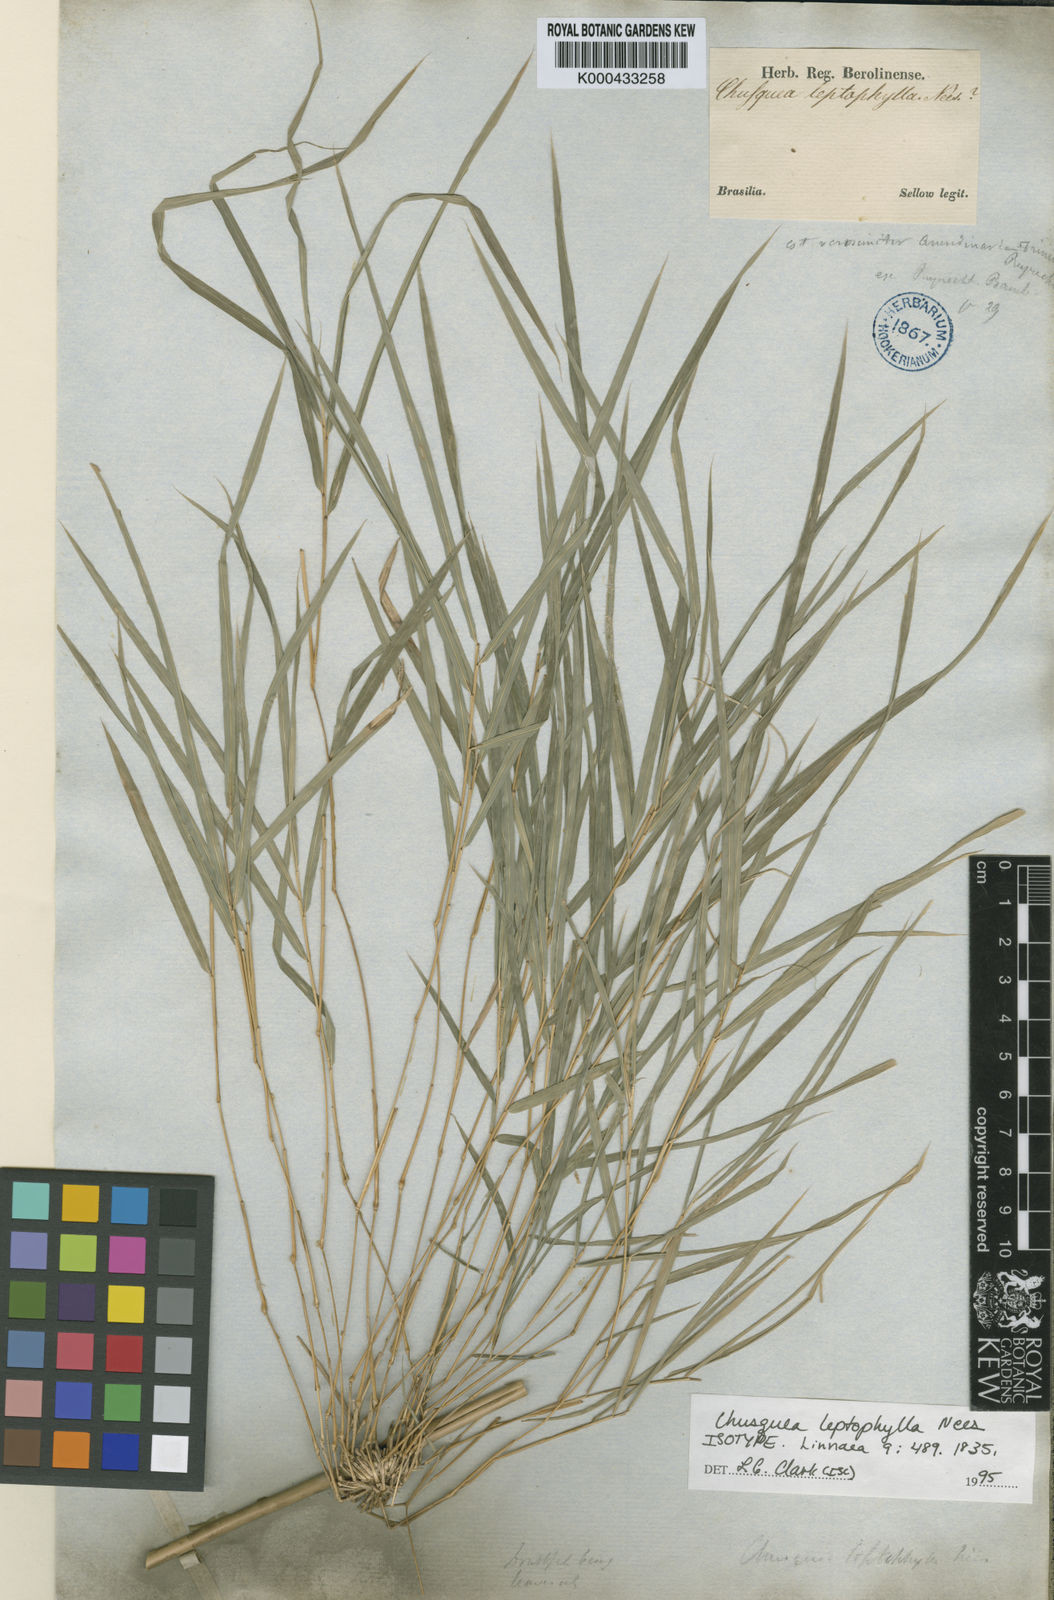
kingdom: Plantae
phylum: Tracheophyta
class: Liliopsida
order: Poales
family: Poaceae
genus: Chusquea
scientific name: Chusquea leptophylla
